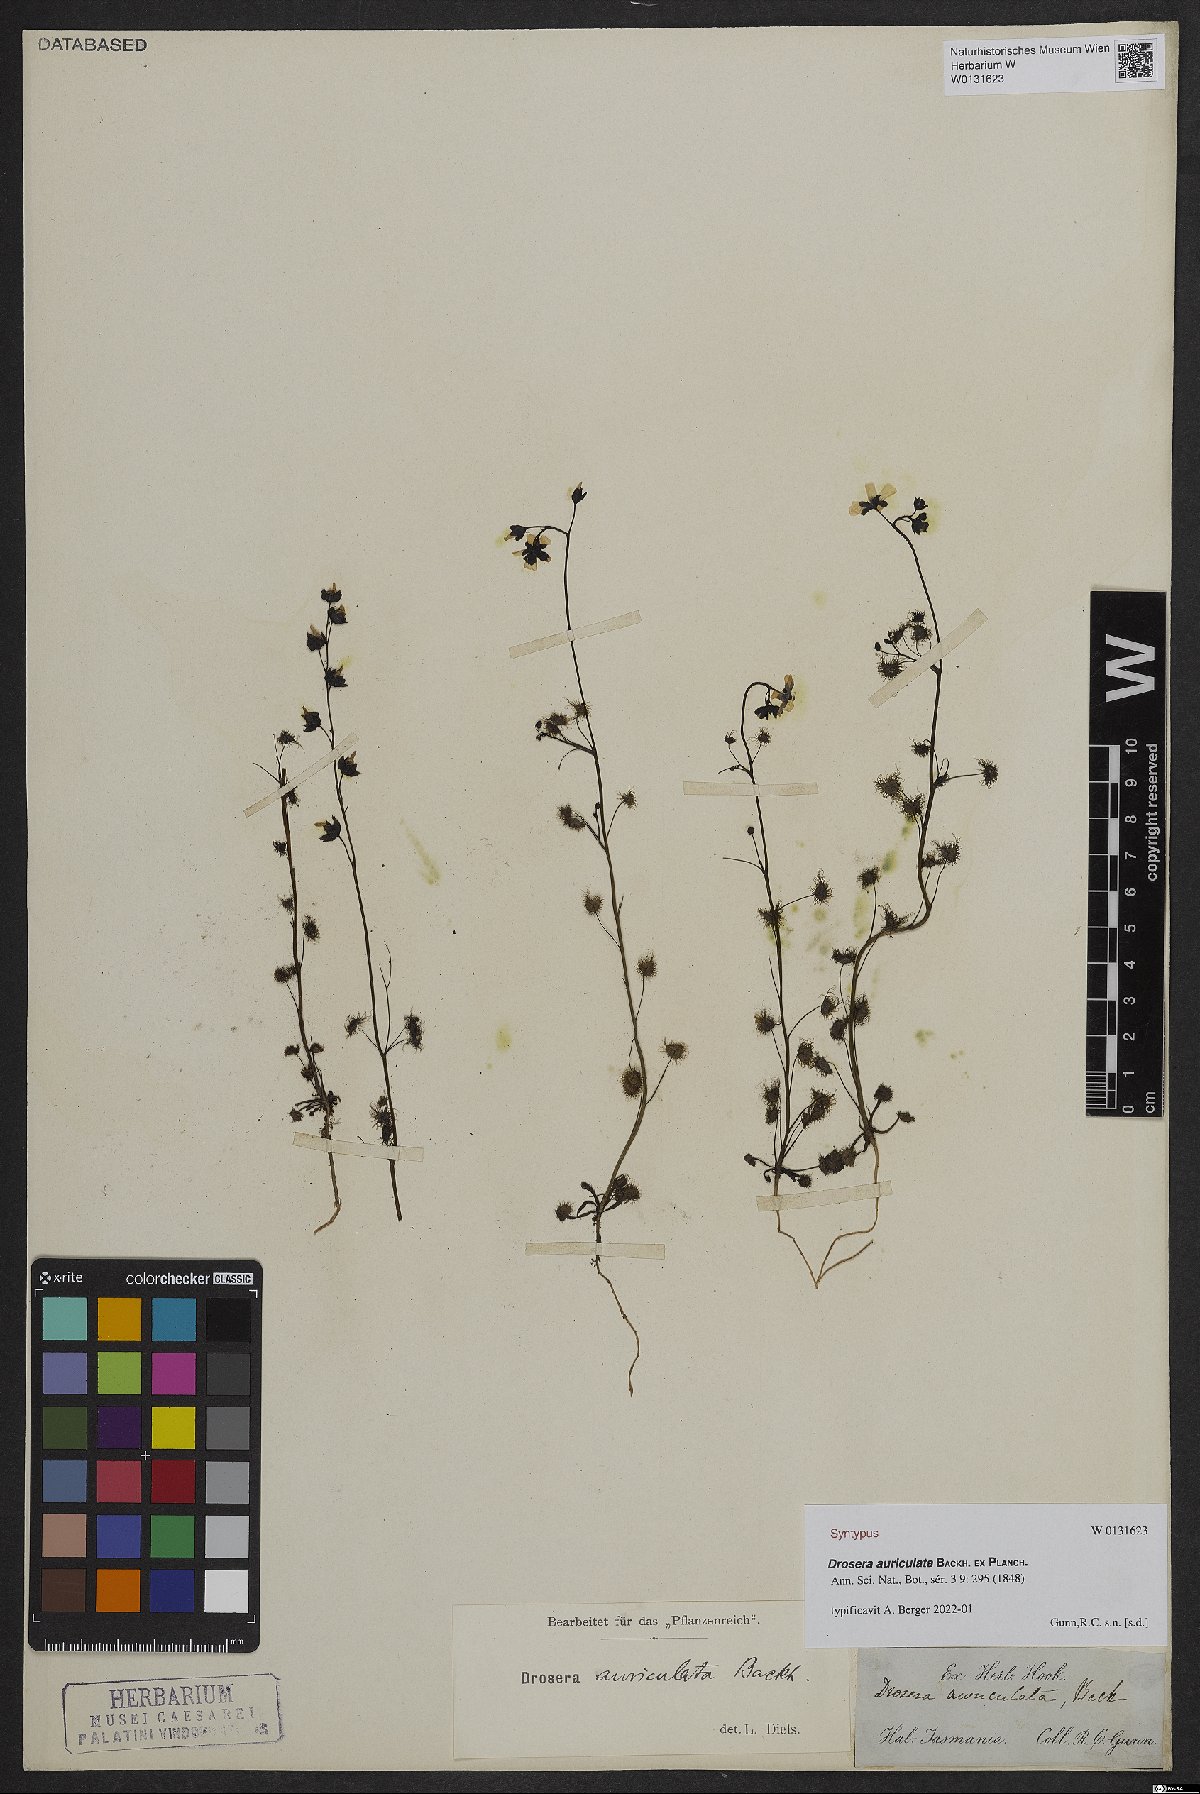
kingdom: Plantae
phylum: Tracheophyta
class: Magnoliopsida
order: Caryophyllales
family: Droseraceae
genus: Drosera
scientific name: Drosera peltata
